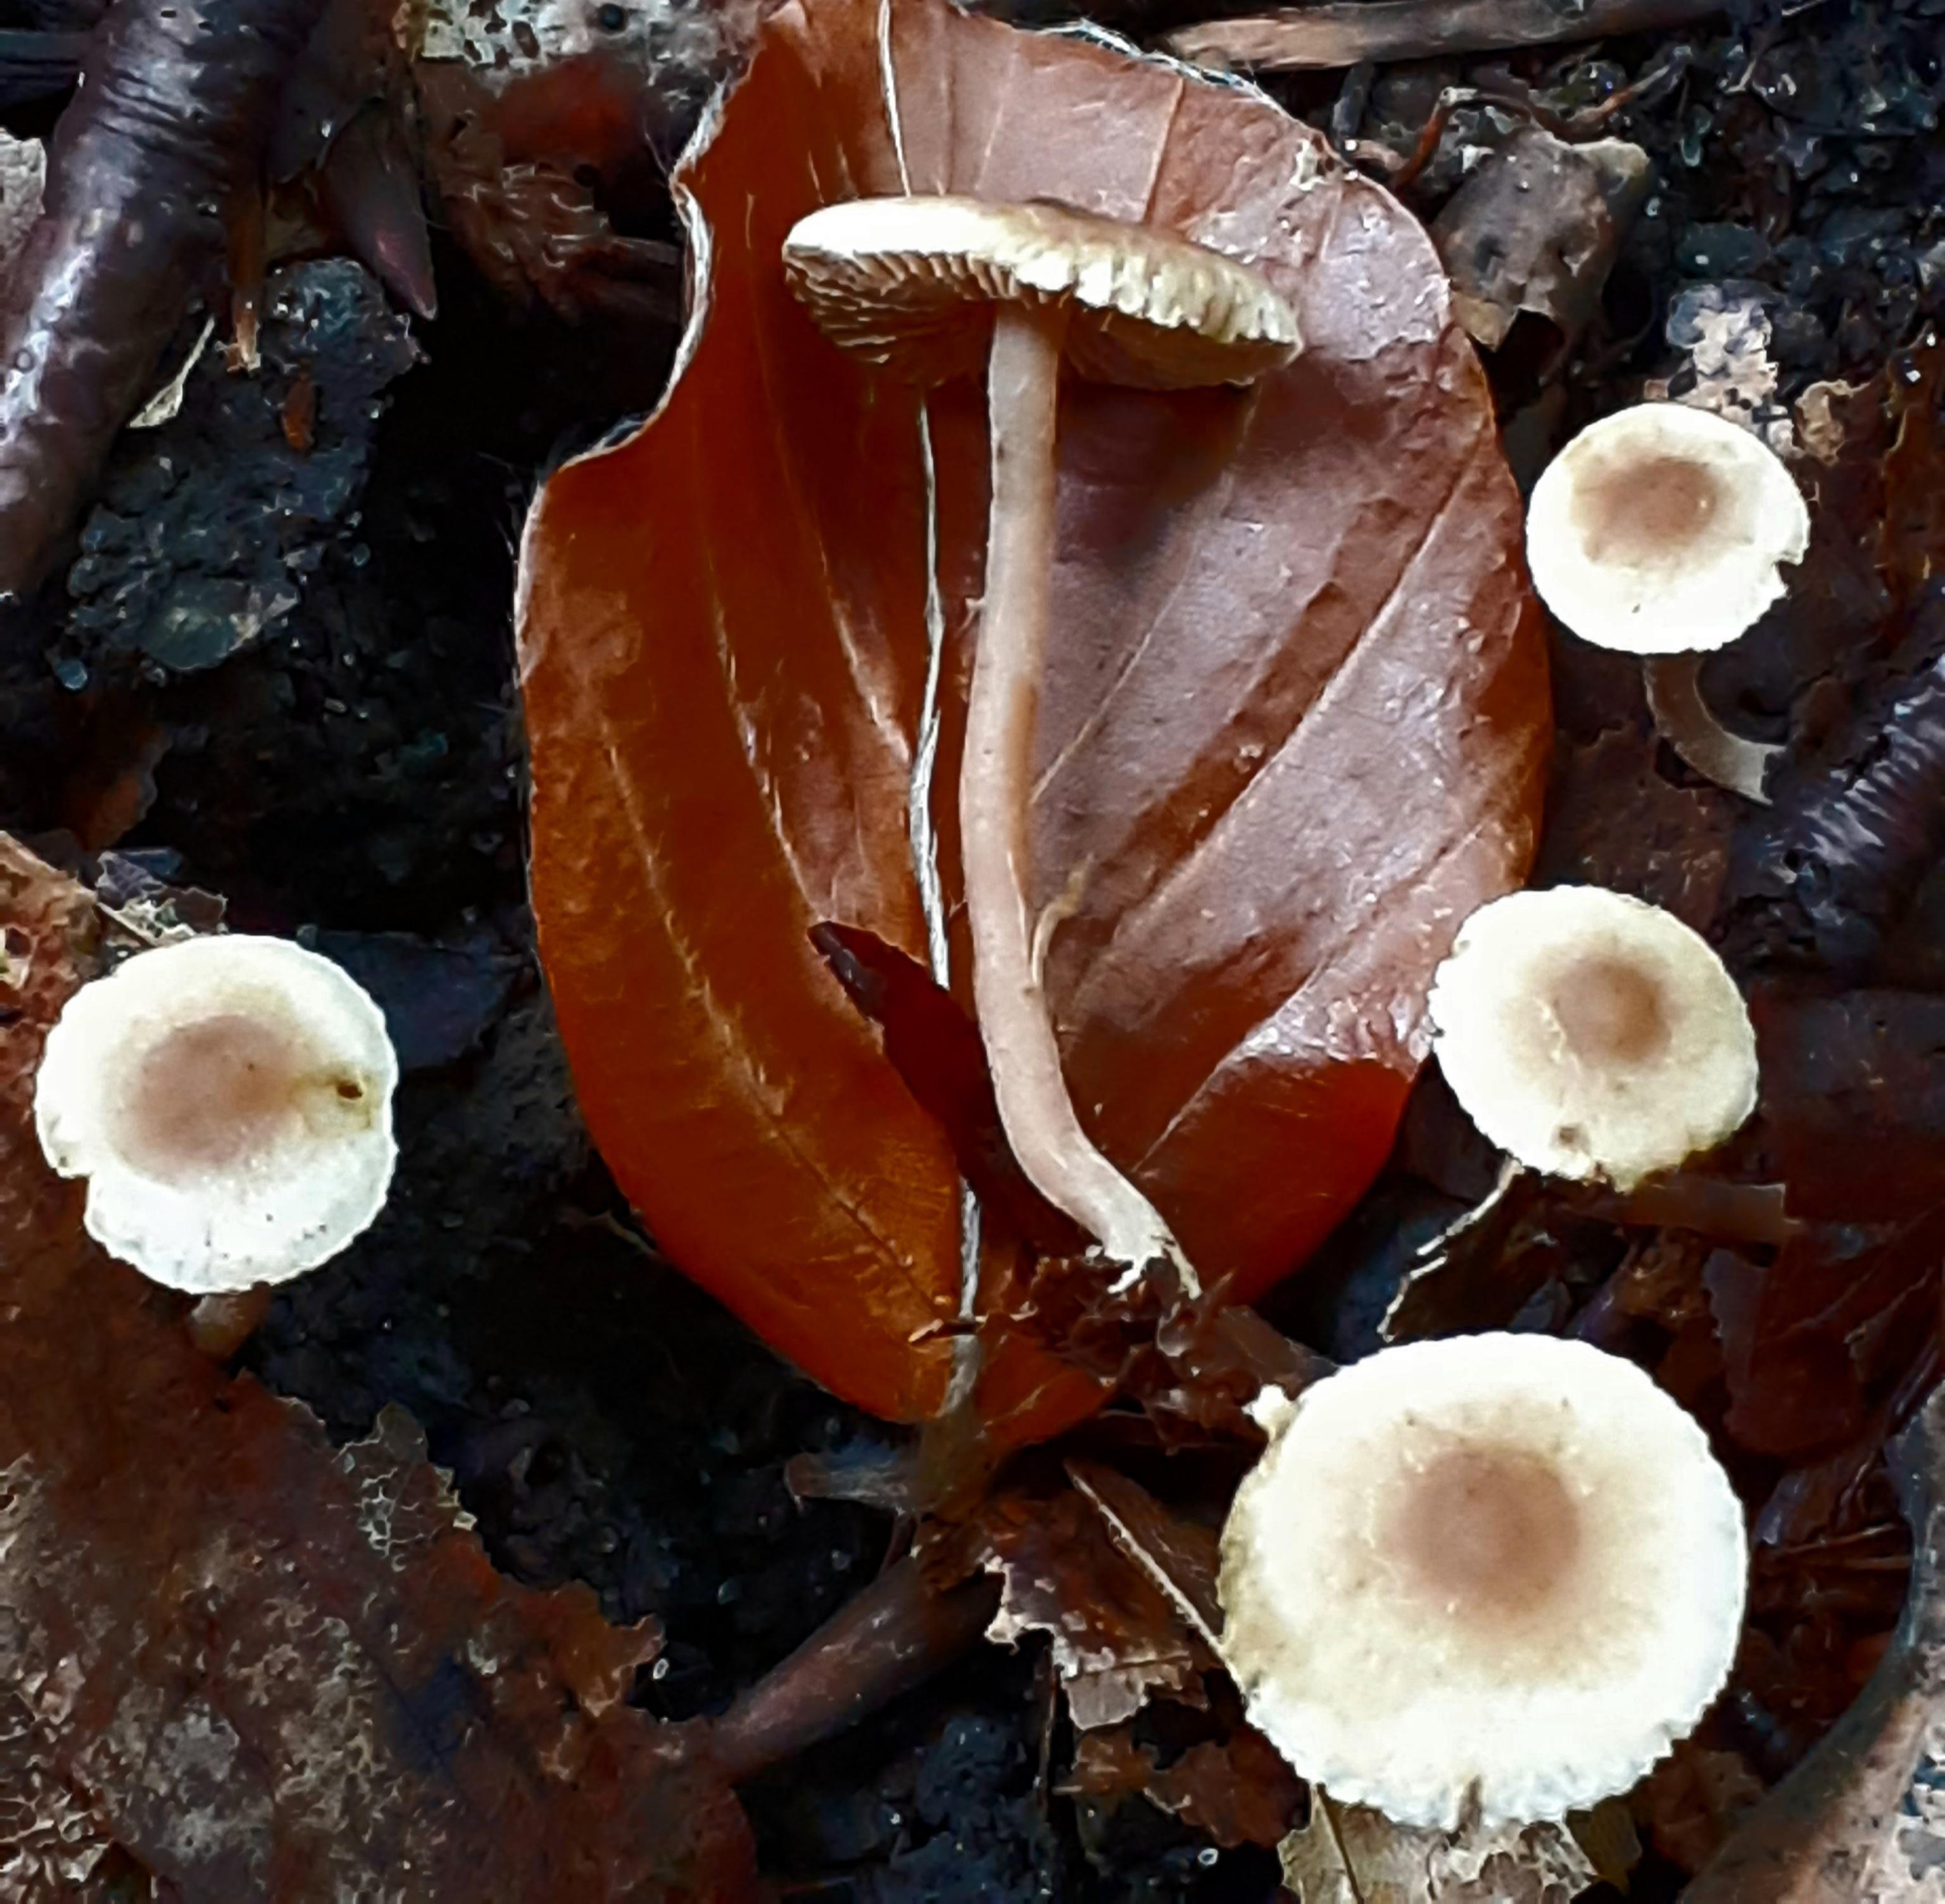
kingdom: Fungi
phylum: Basidiomycota
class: Agaricomycetes
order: Agaricales
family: Inocybaceae
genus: Inocybe
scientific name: Inocybe petiginosa
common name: liden trævlhat
